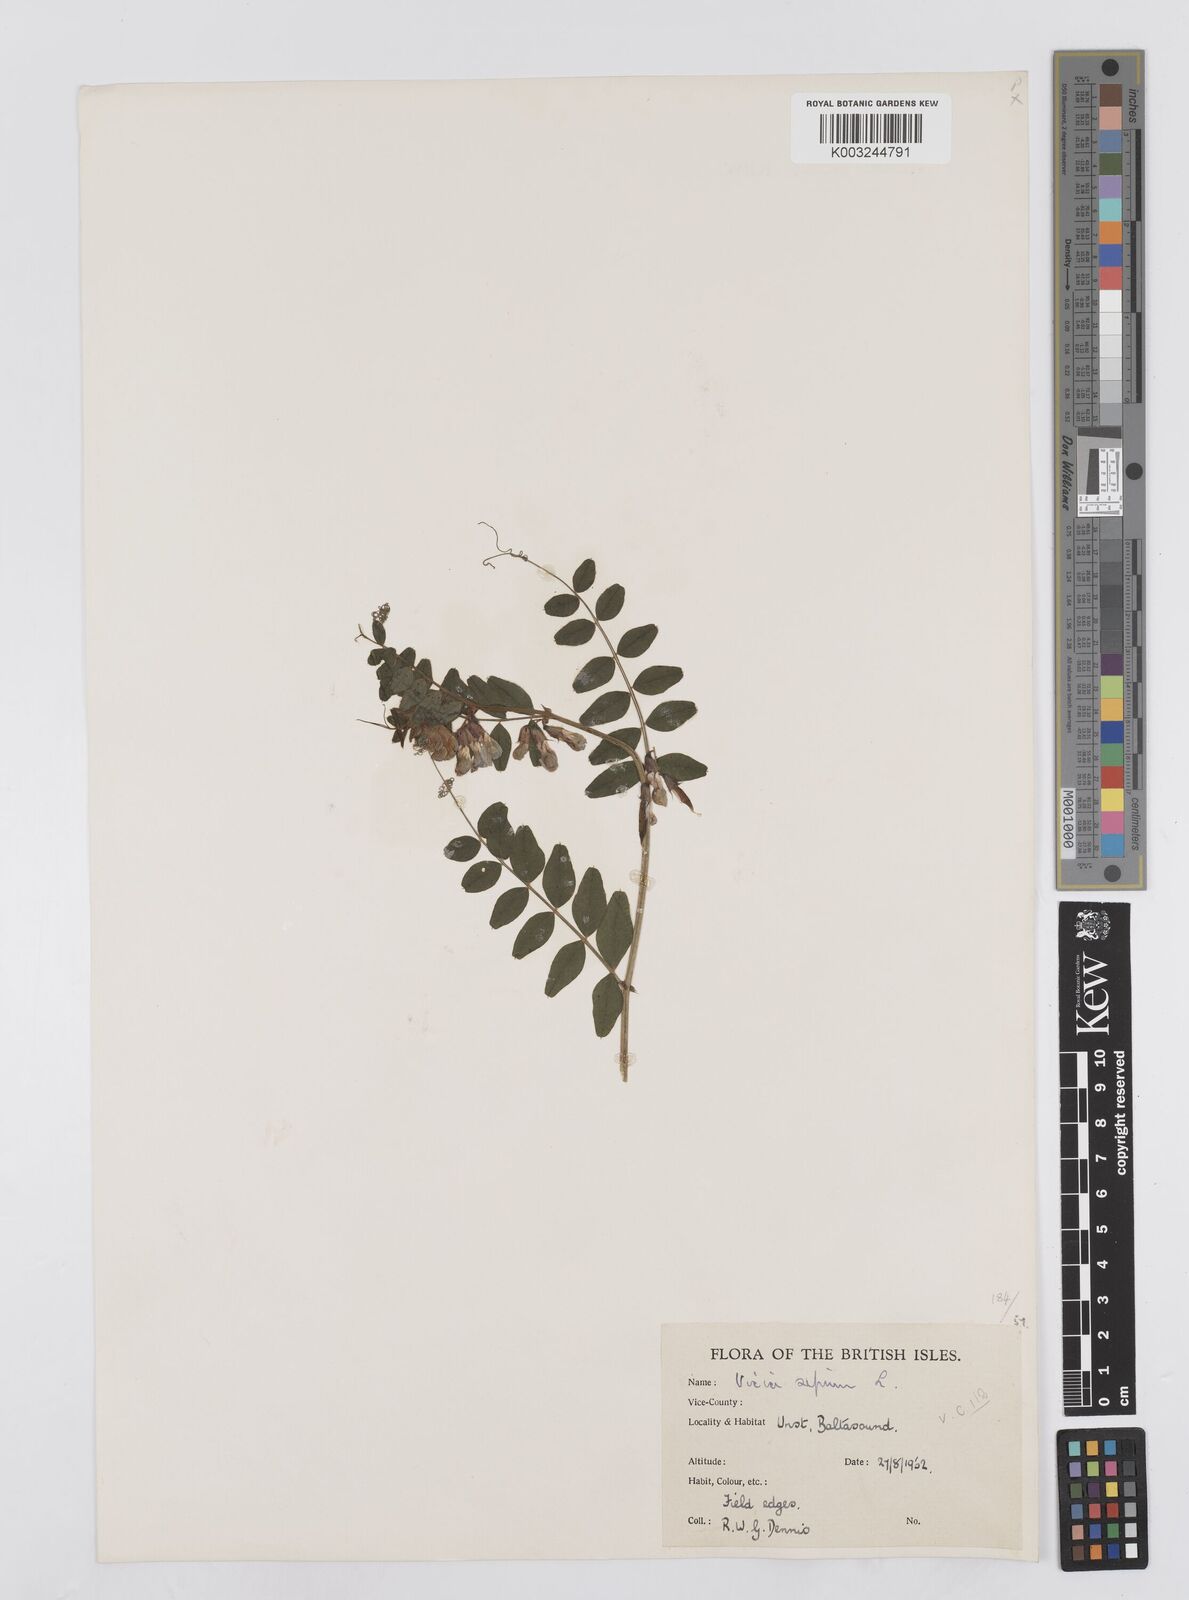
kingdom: Plantae
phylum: Tracheophyta
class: Magnoliopsida
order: Fabales
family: Fabaceae
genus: Vicia
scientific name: Vicia sepium
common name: Bush vetch
